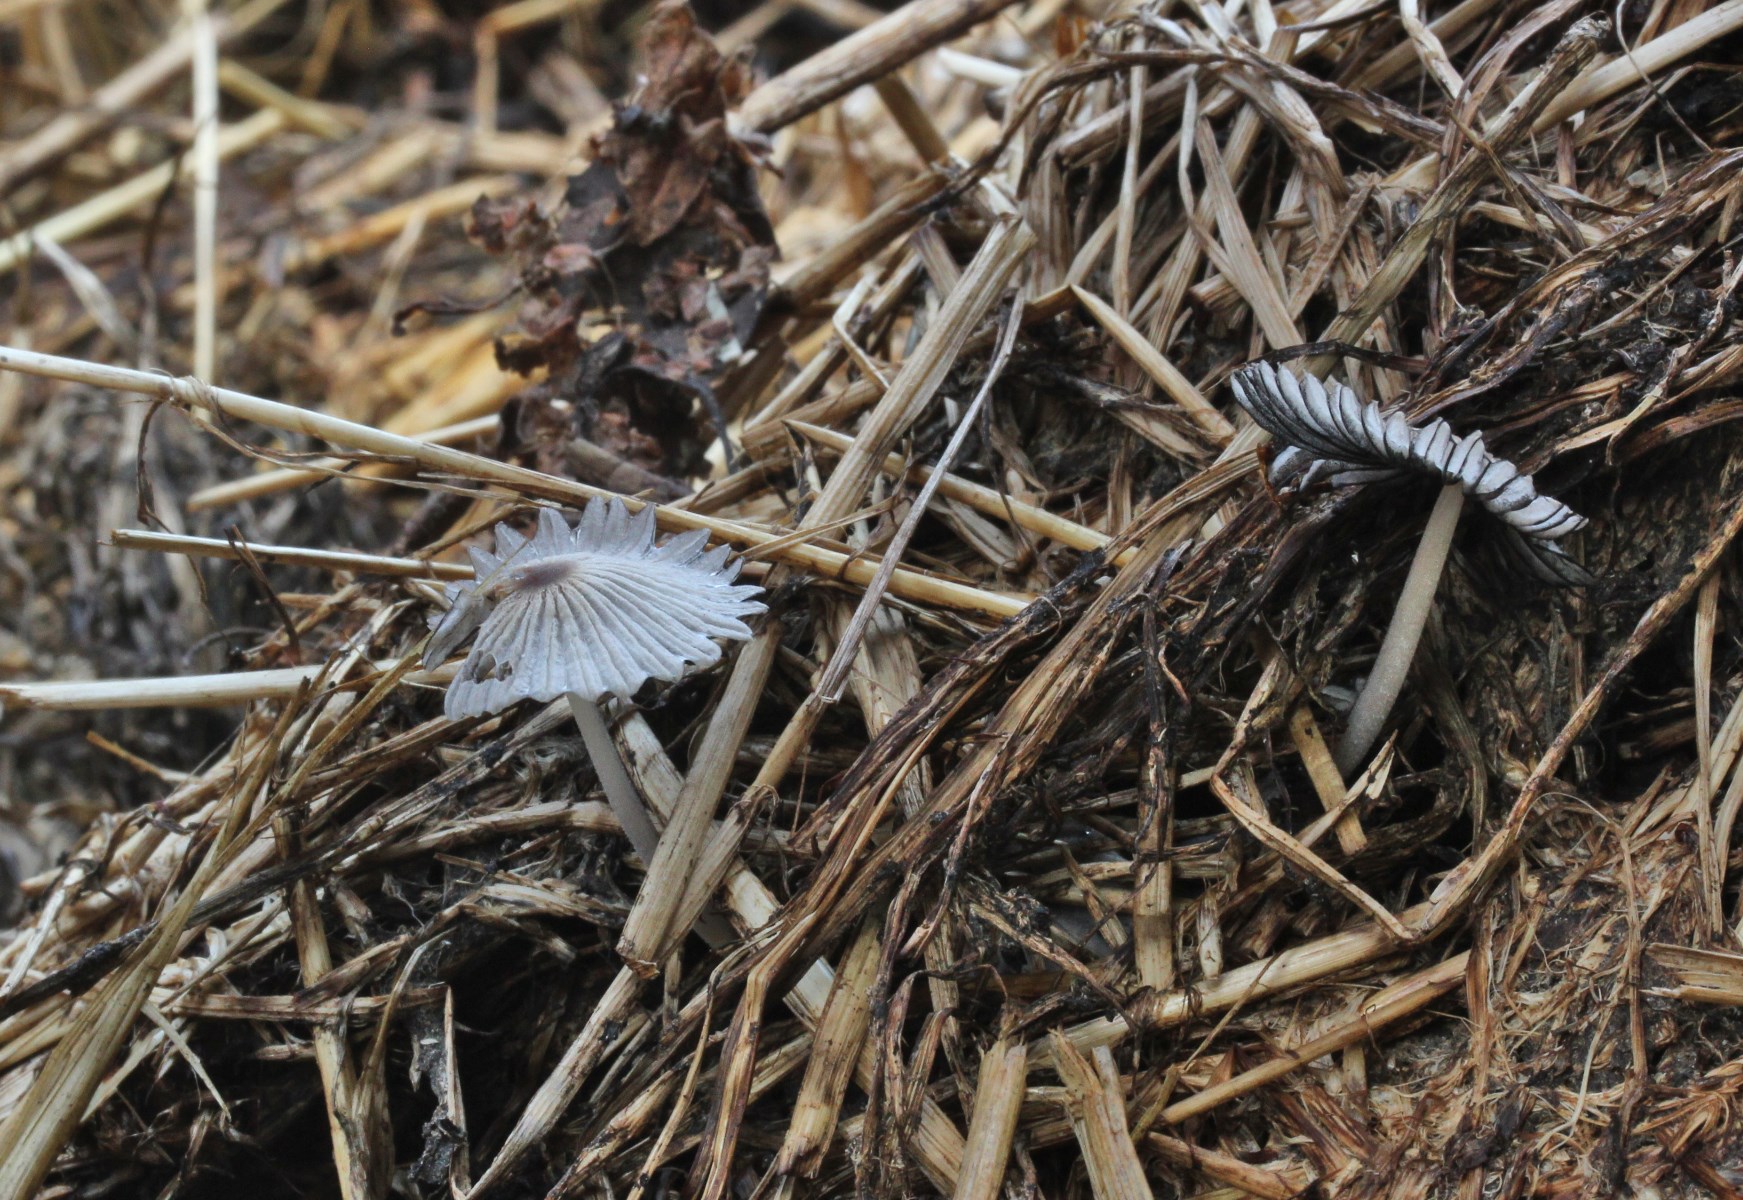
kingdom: Fungi
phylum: Basidiomycota
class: Agaricomycetes
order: Agaricales
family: Psathyrellaceae
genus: Tulosesus
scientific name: Tulosesus marculentus
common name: hexagonsporet blækhat
